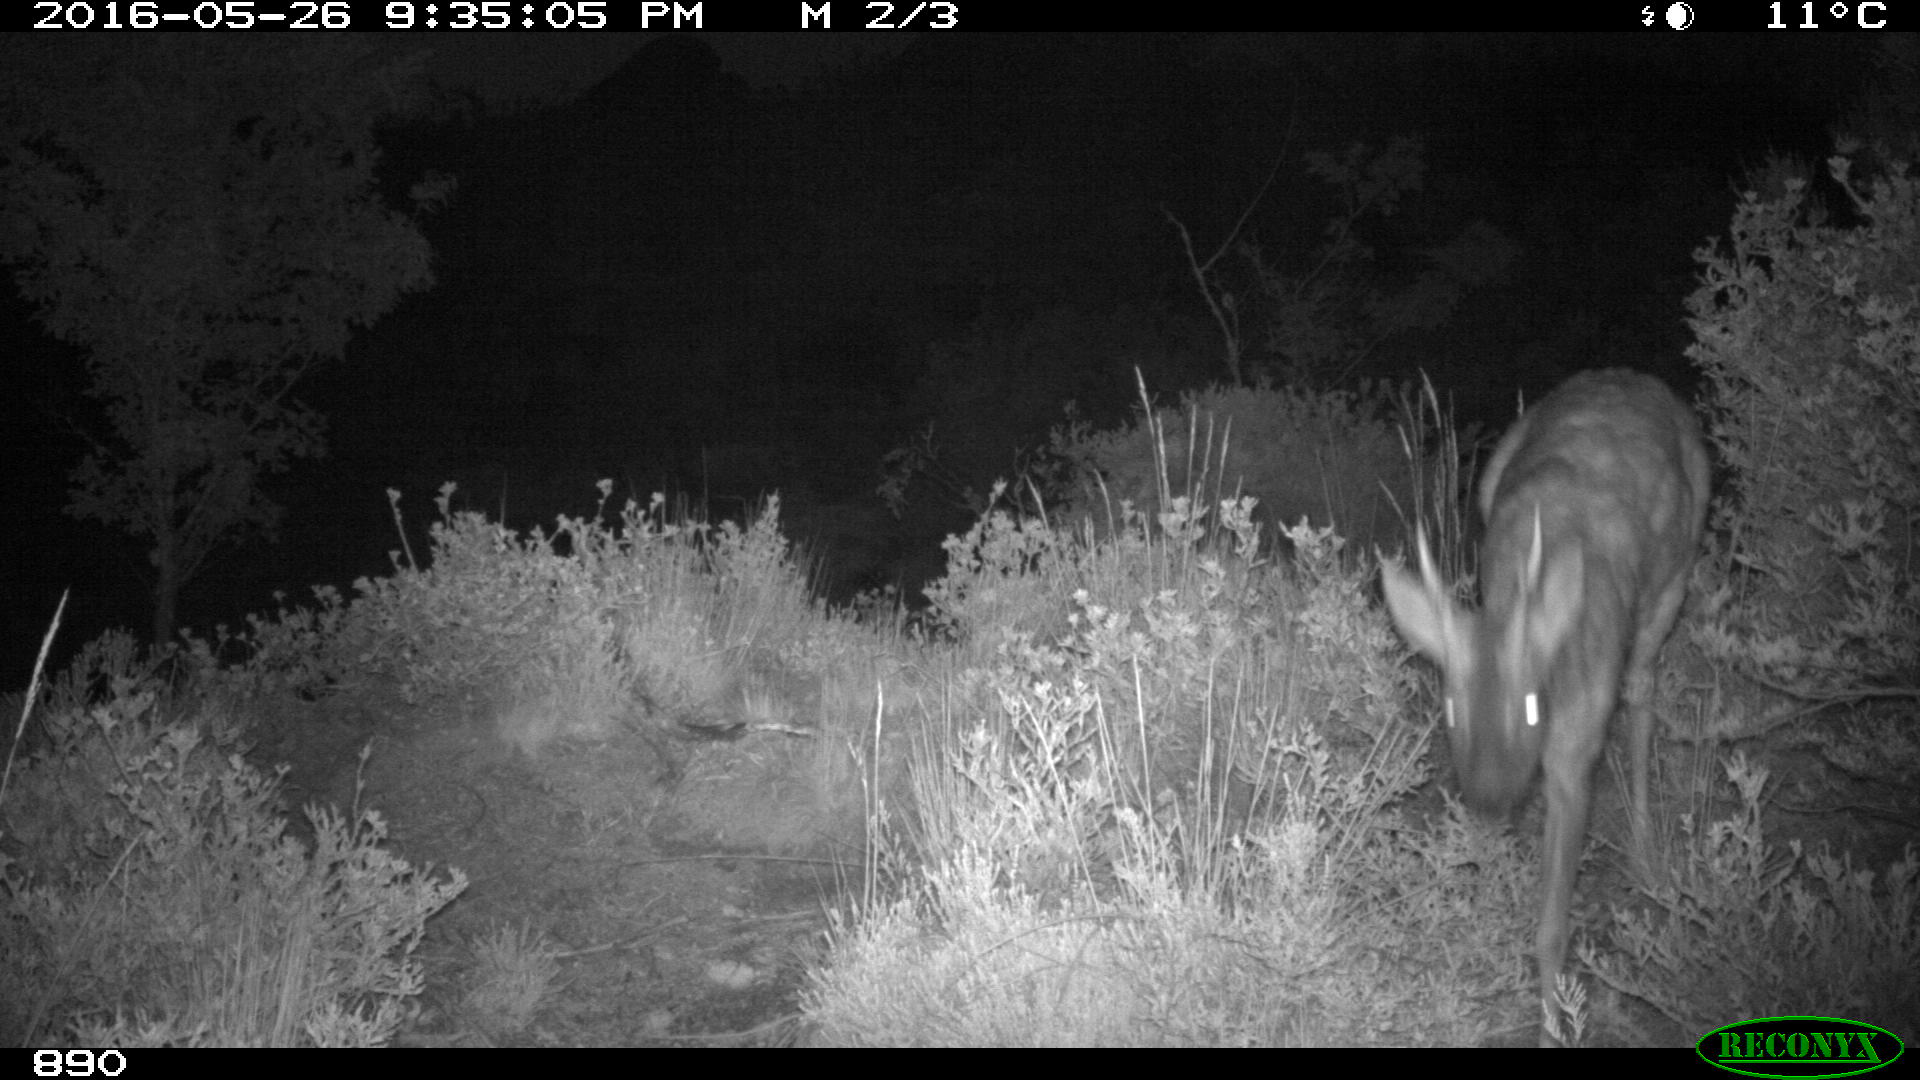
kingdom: Animalia
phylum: Chordata
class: Mammalia
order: Artiodactyla
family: Cervidae
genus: Capreolus
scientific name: Capreolus capreolus
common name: Western roe deer
